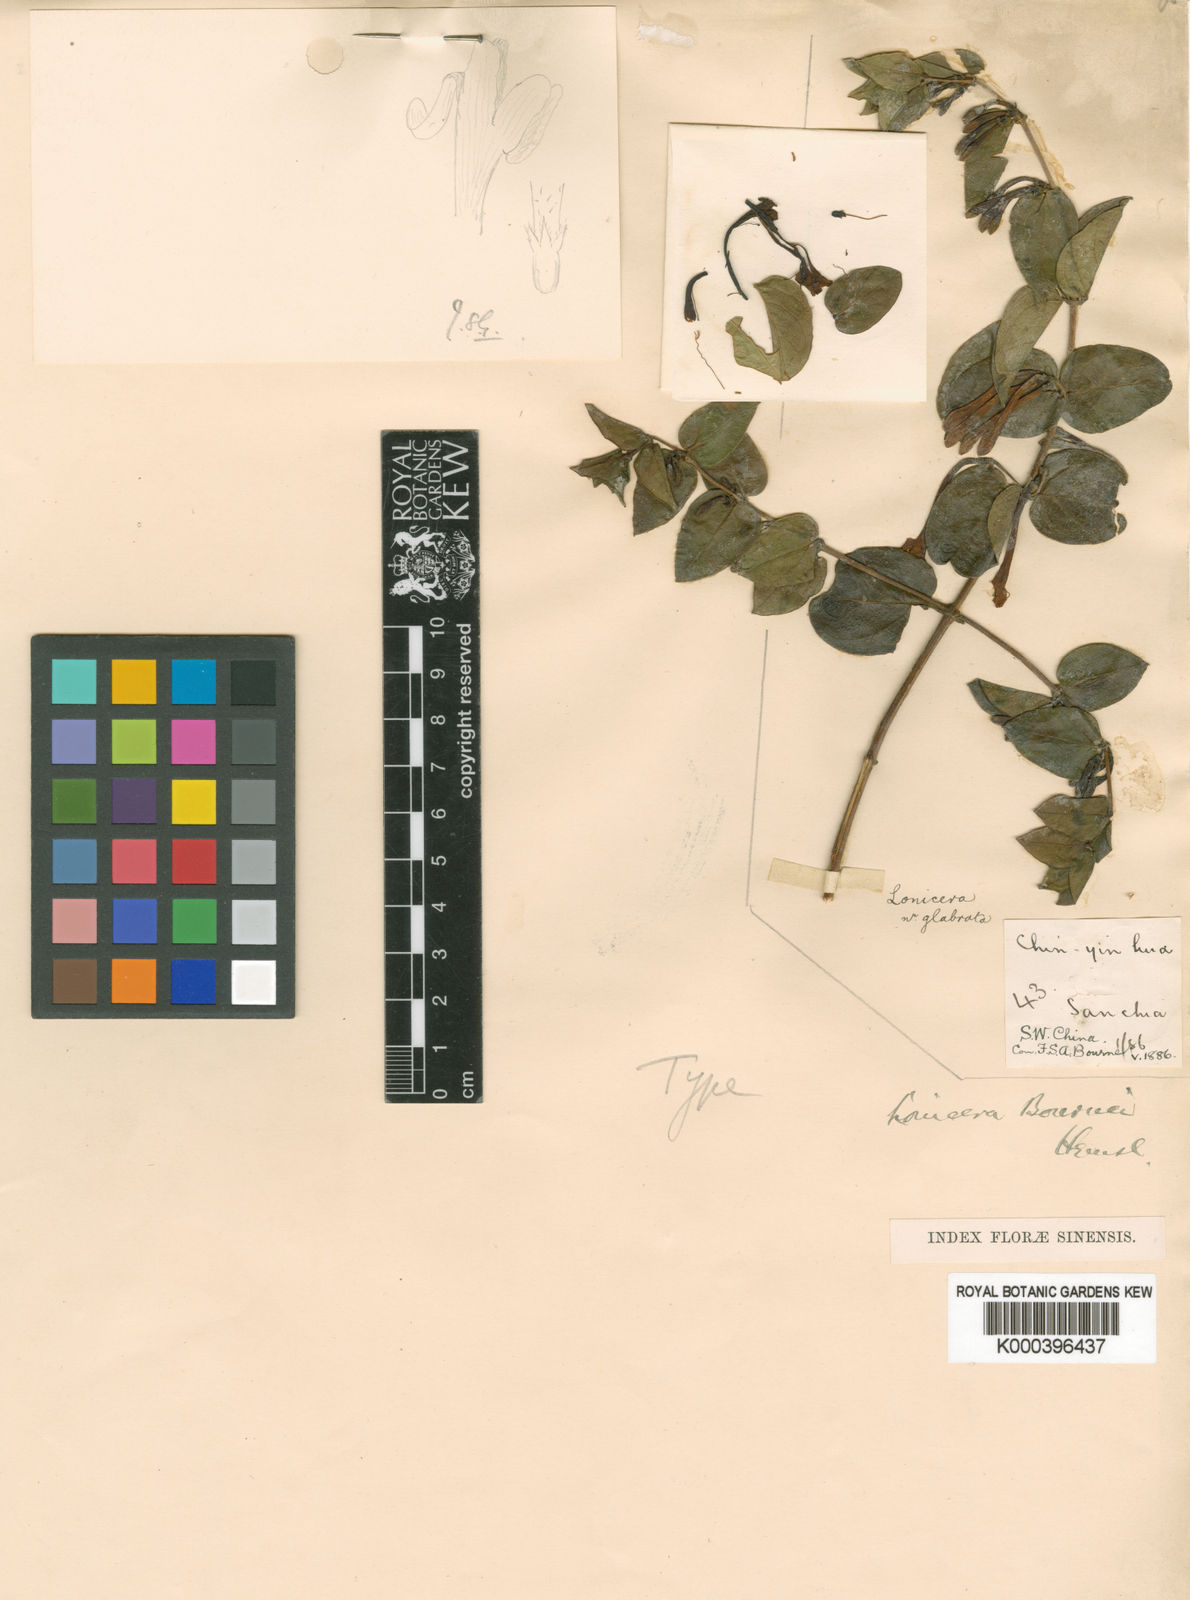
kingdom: Plantae
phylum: Tracheophyta
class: Magnoliopsida
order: Dipsacales
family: Caprifoliaceae
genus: Lonicera
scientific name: Lonicera bournei
